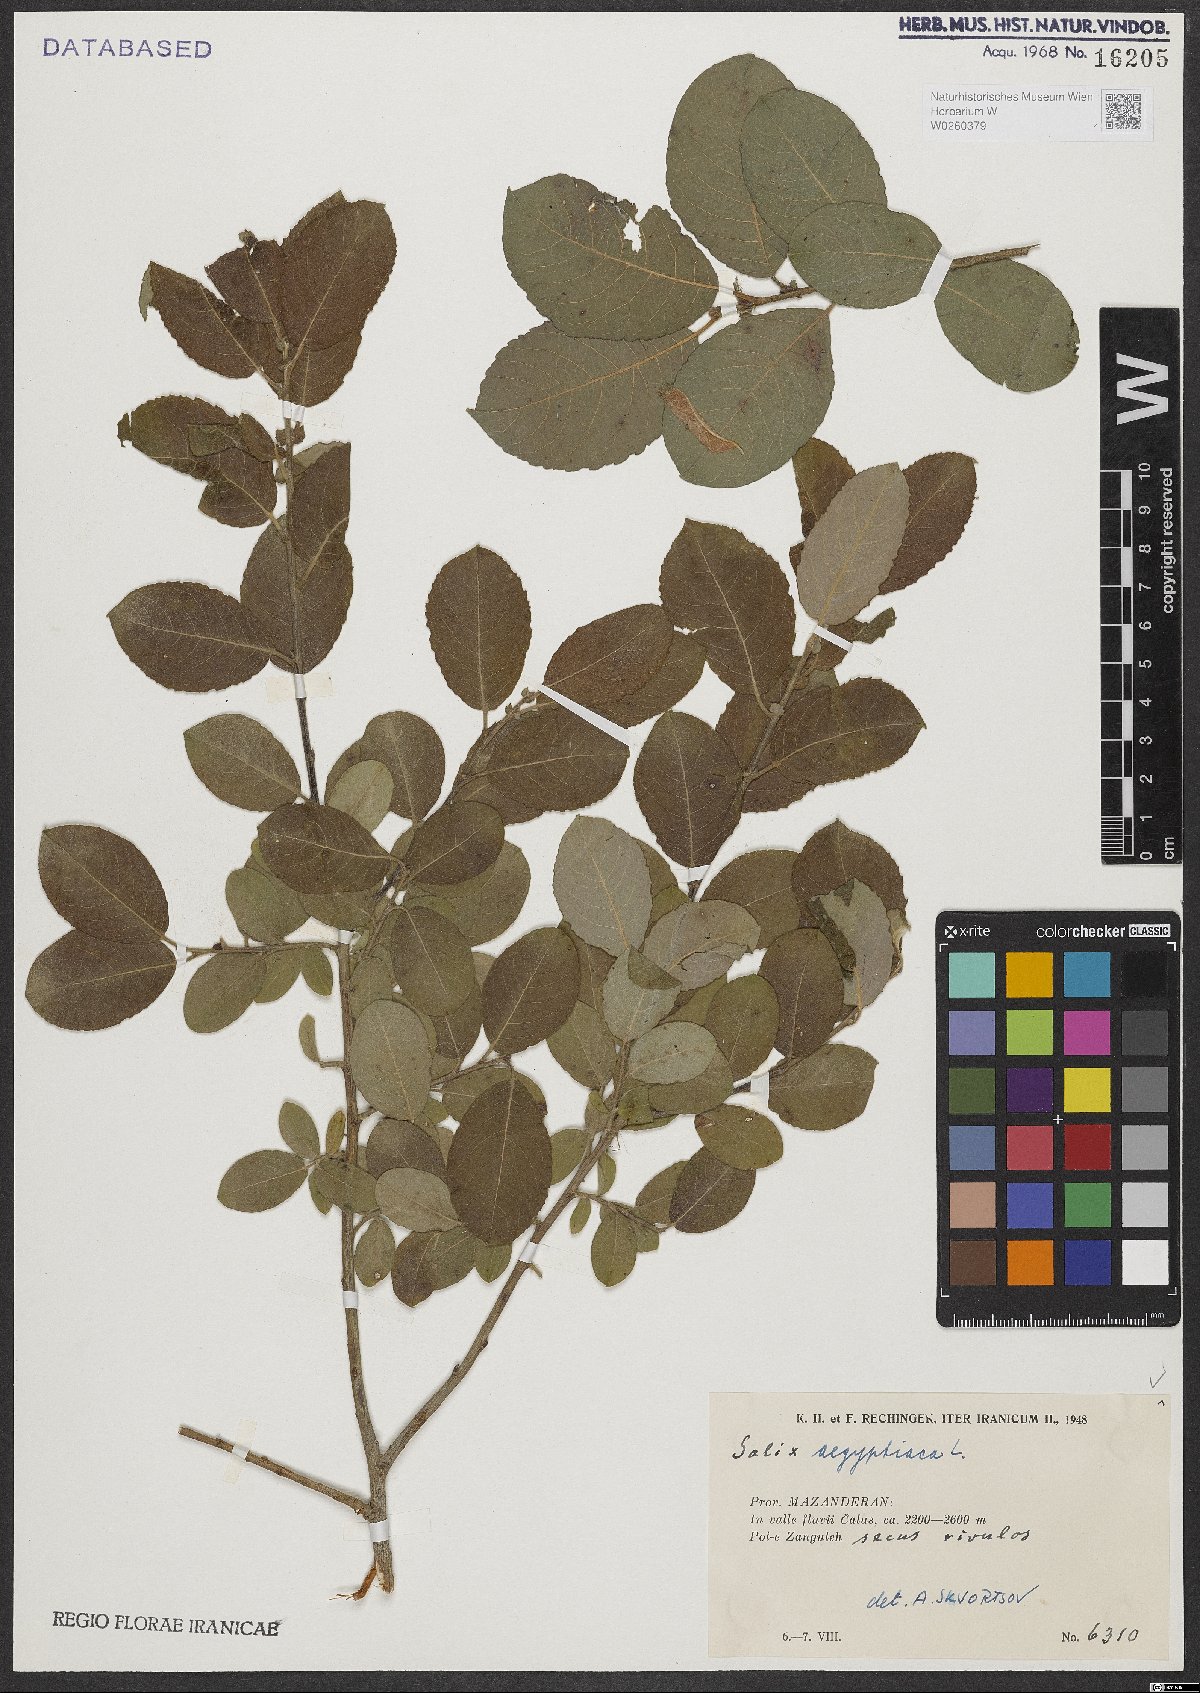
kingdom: Plantae
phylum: Tracheophyta
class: Magnoliopsida
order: Malpighiales
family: Salicaceae
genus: Salix
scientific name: Salix aegyptiaca
